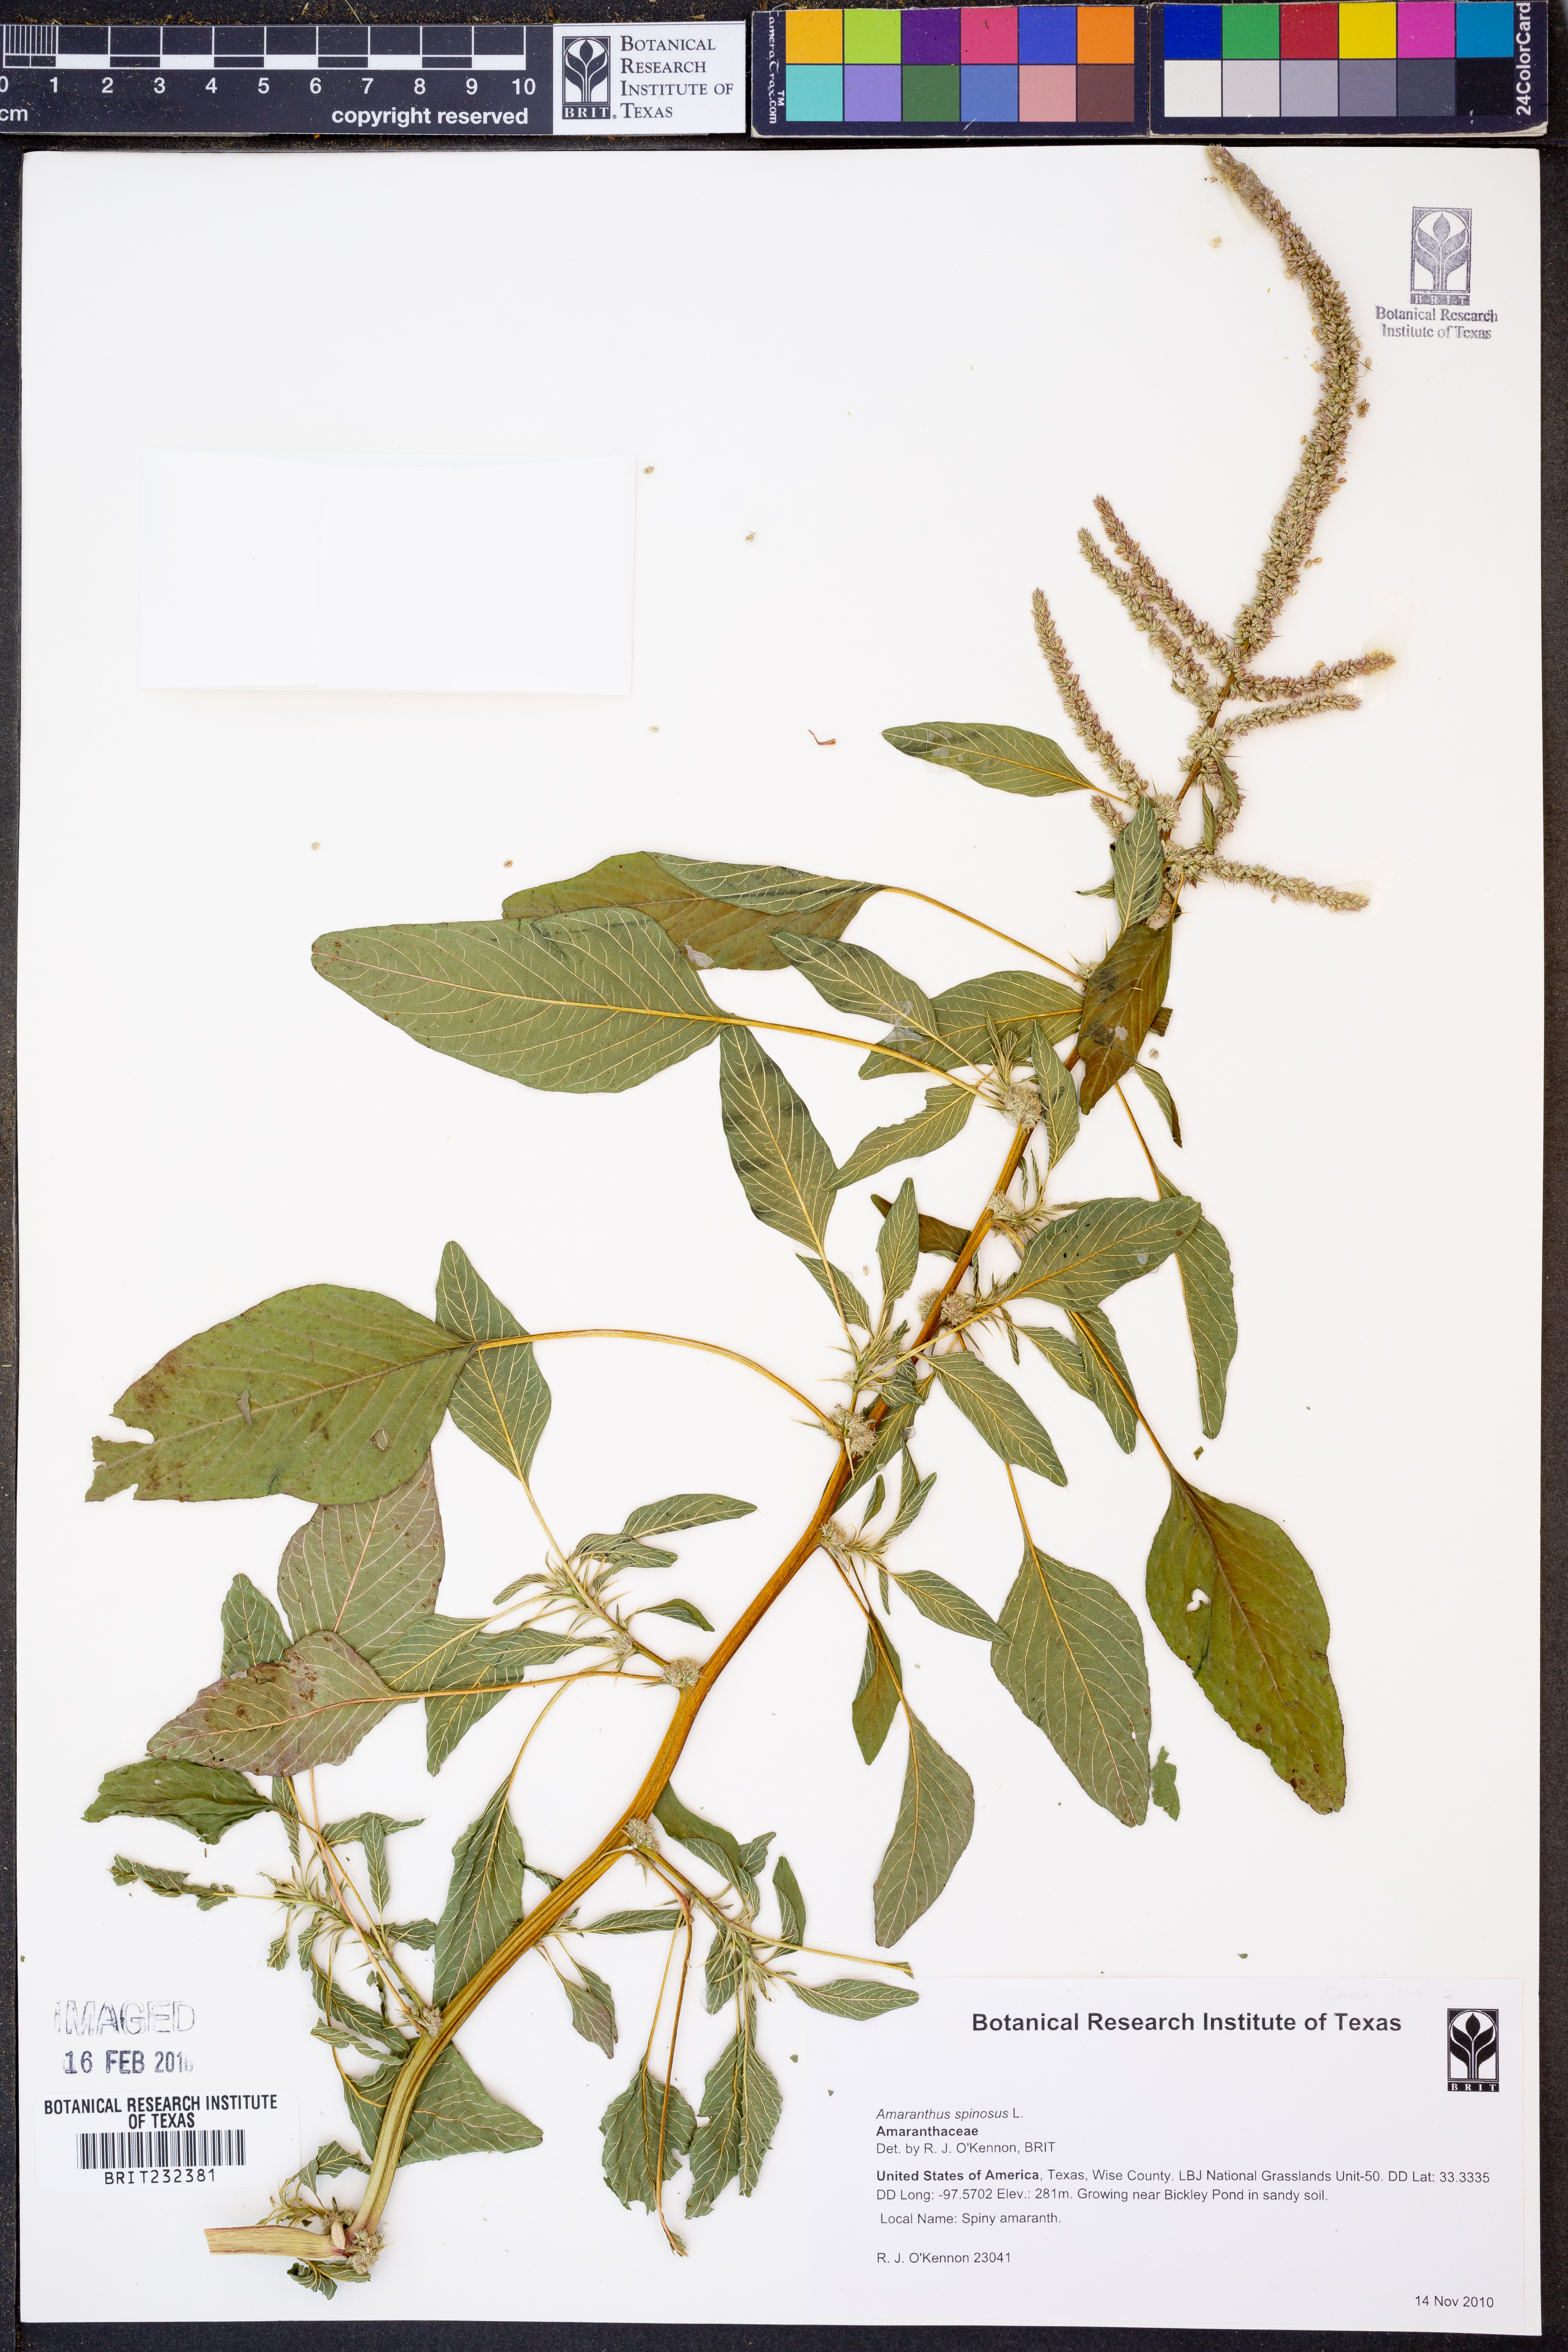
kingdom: Plantae
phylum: Tracheophyta
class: Magnoliopsida
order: Caryophyllales
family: Amaranthaceae
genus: Amaranthus
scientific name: Amaranthus spinosus
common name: Spiny amaranth
